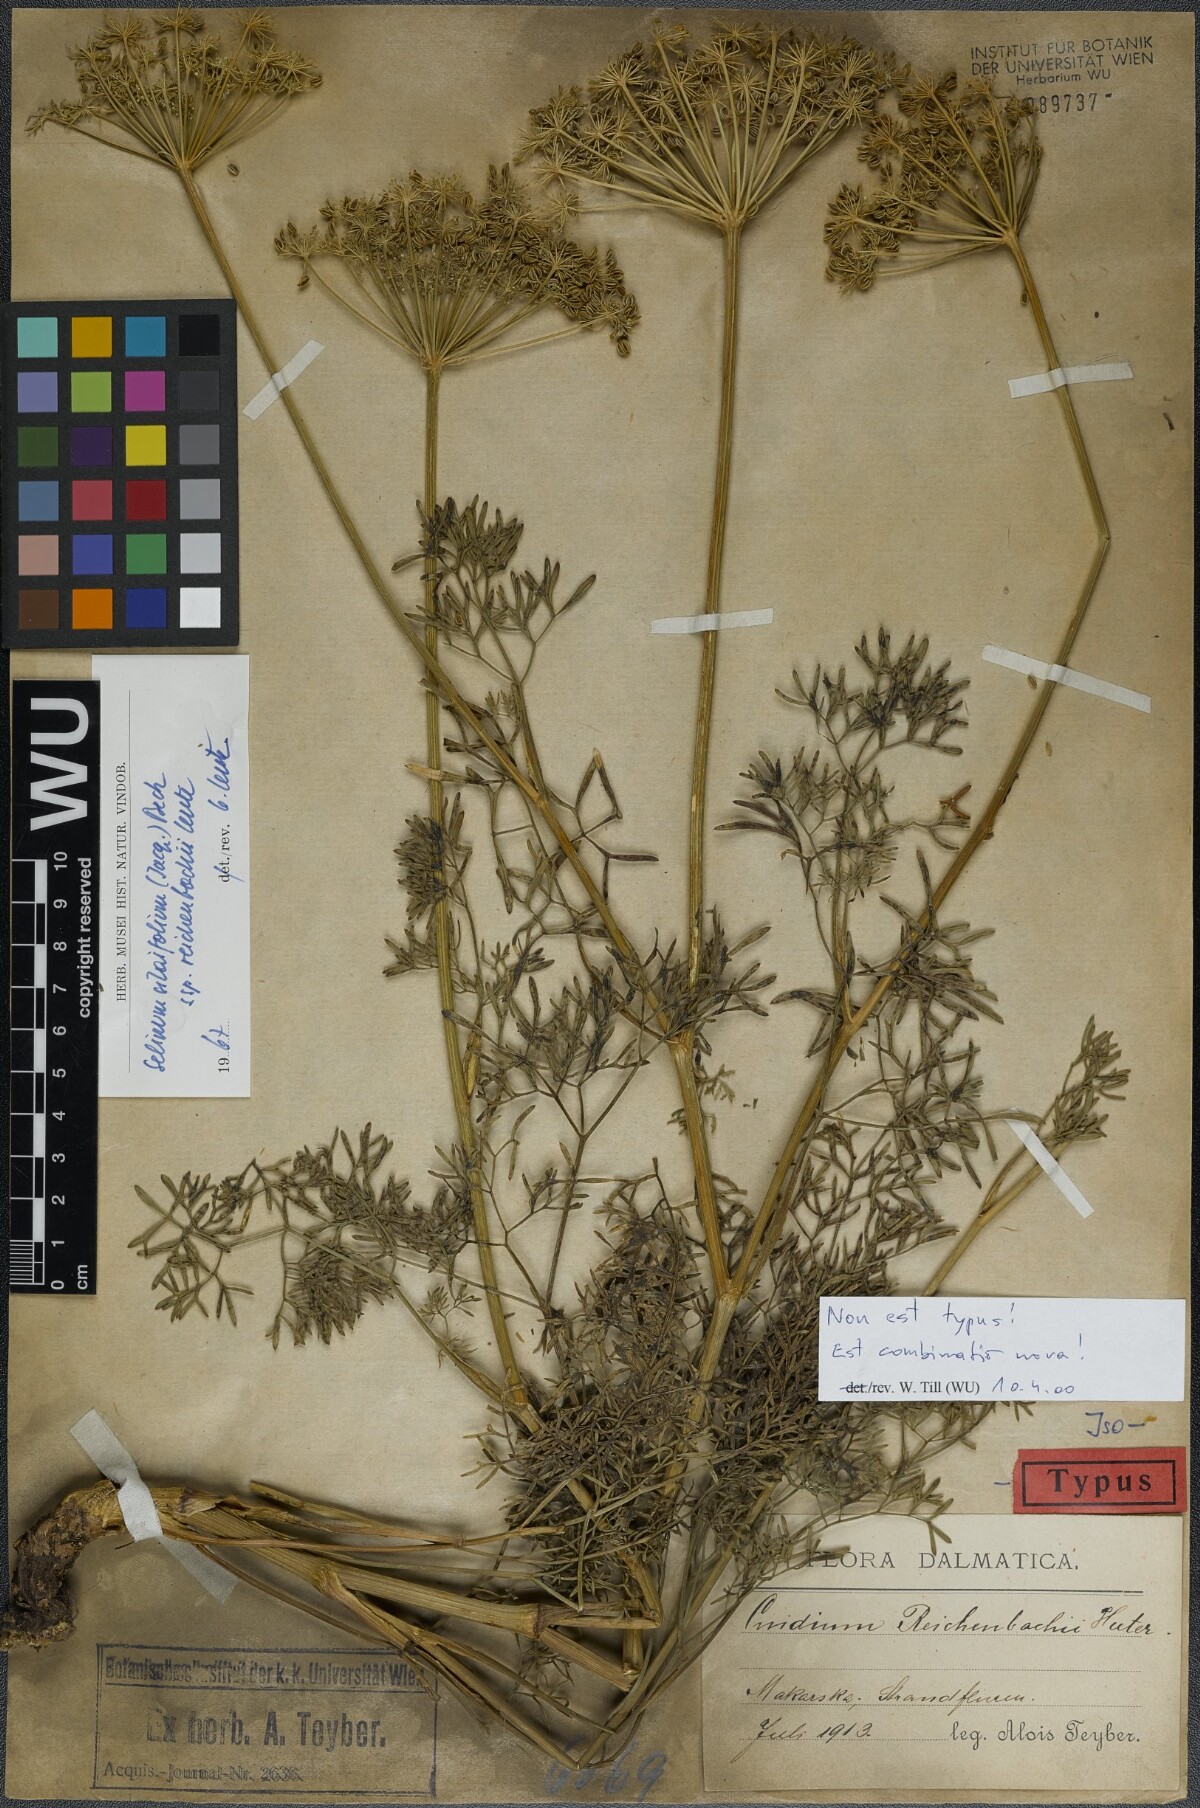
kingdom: Plantae
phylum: Tracheophyta
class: Magnoliopsida
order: Apiales
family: Apiaceae
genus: Katapsuxis
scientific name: Katapsuxis silaifolia
